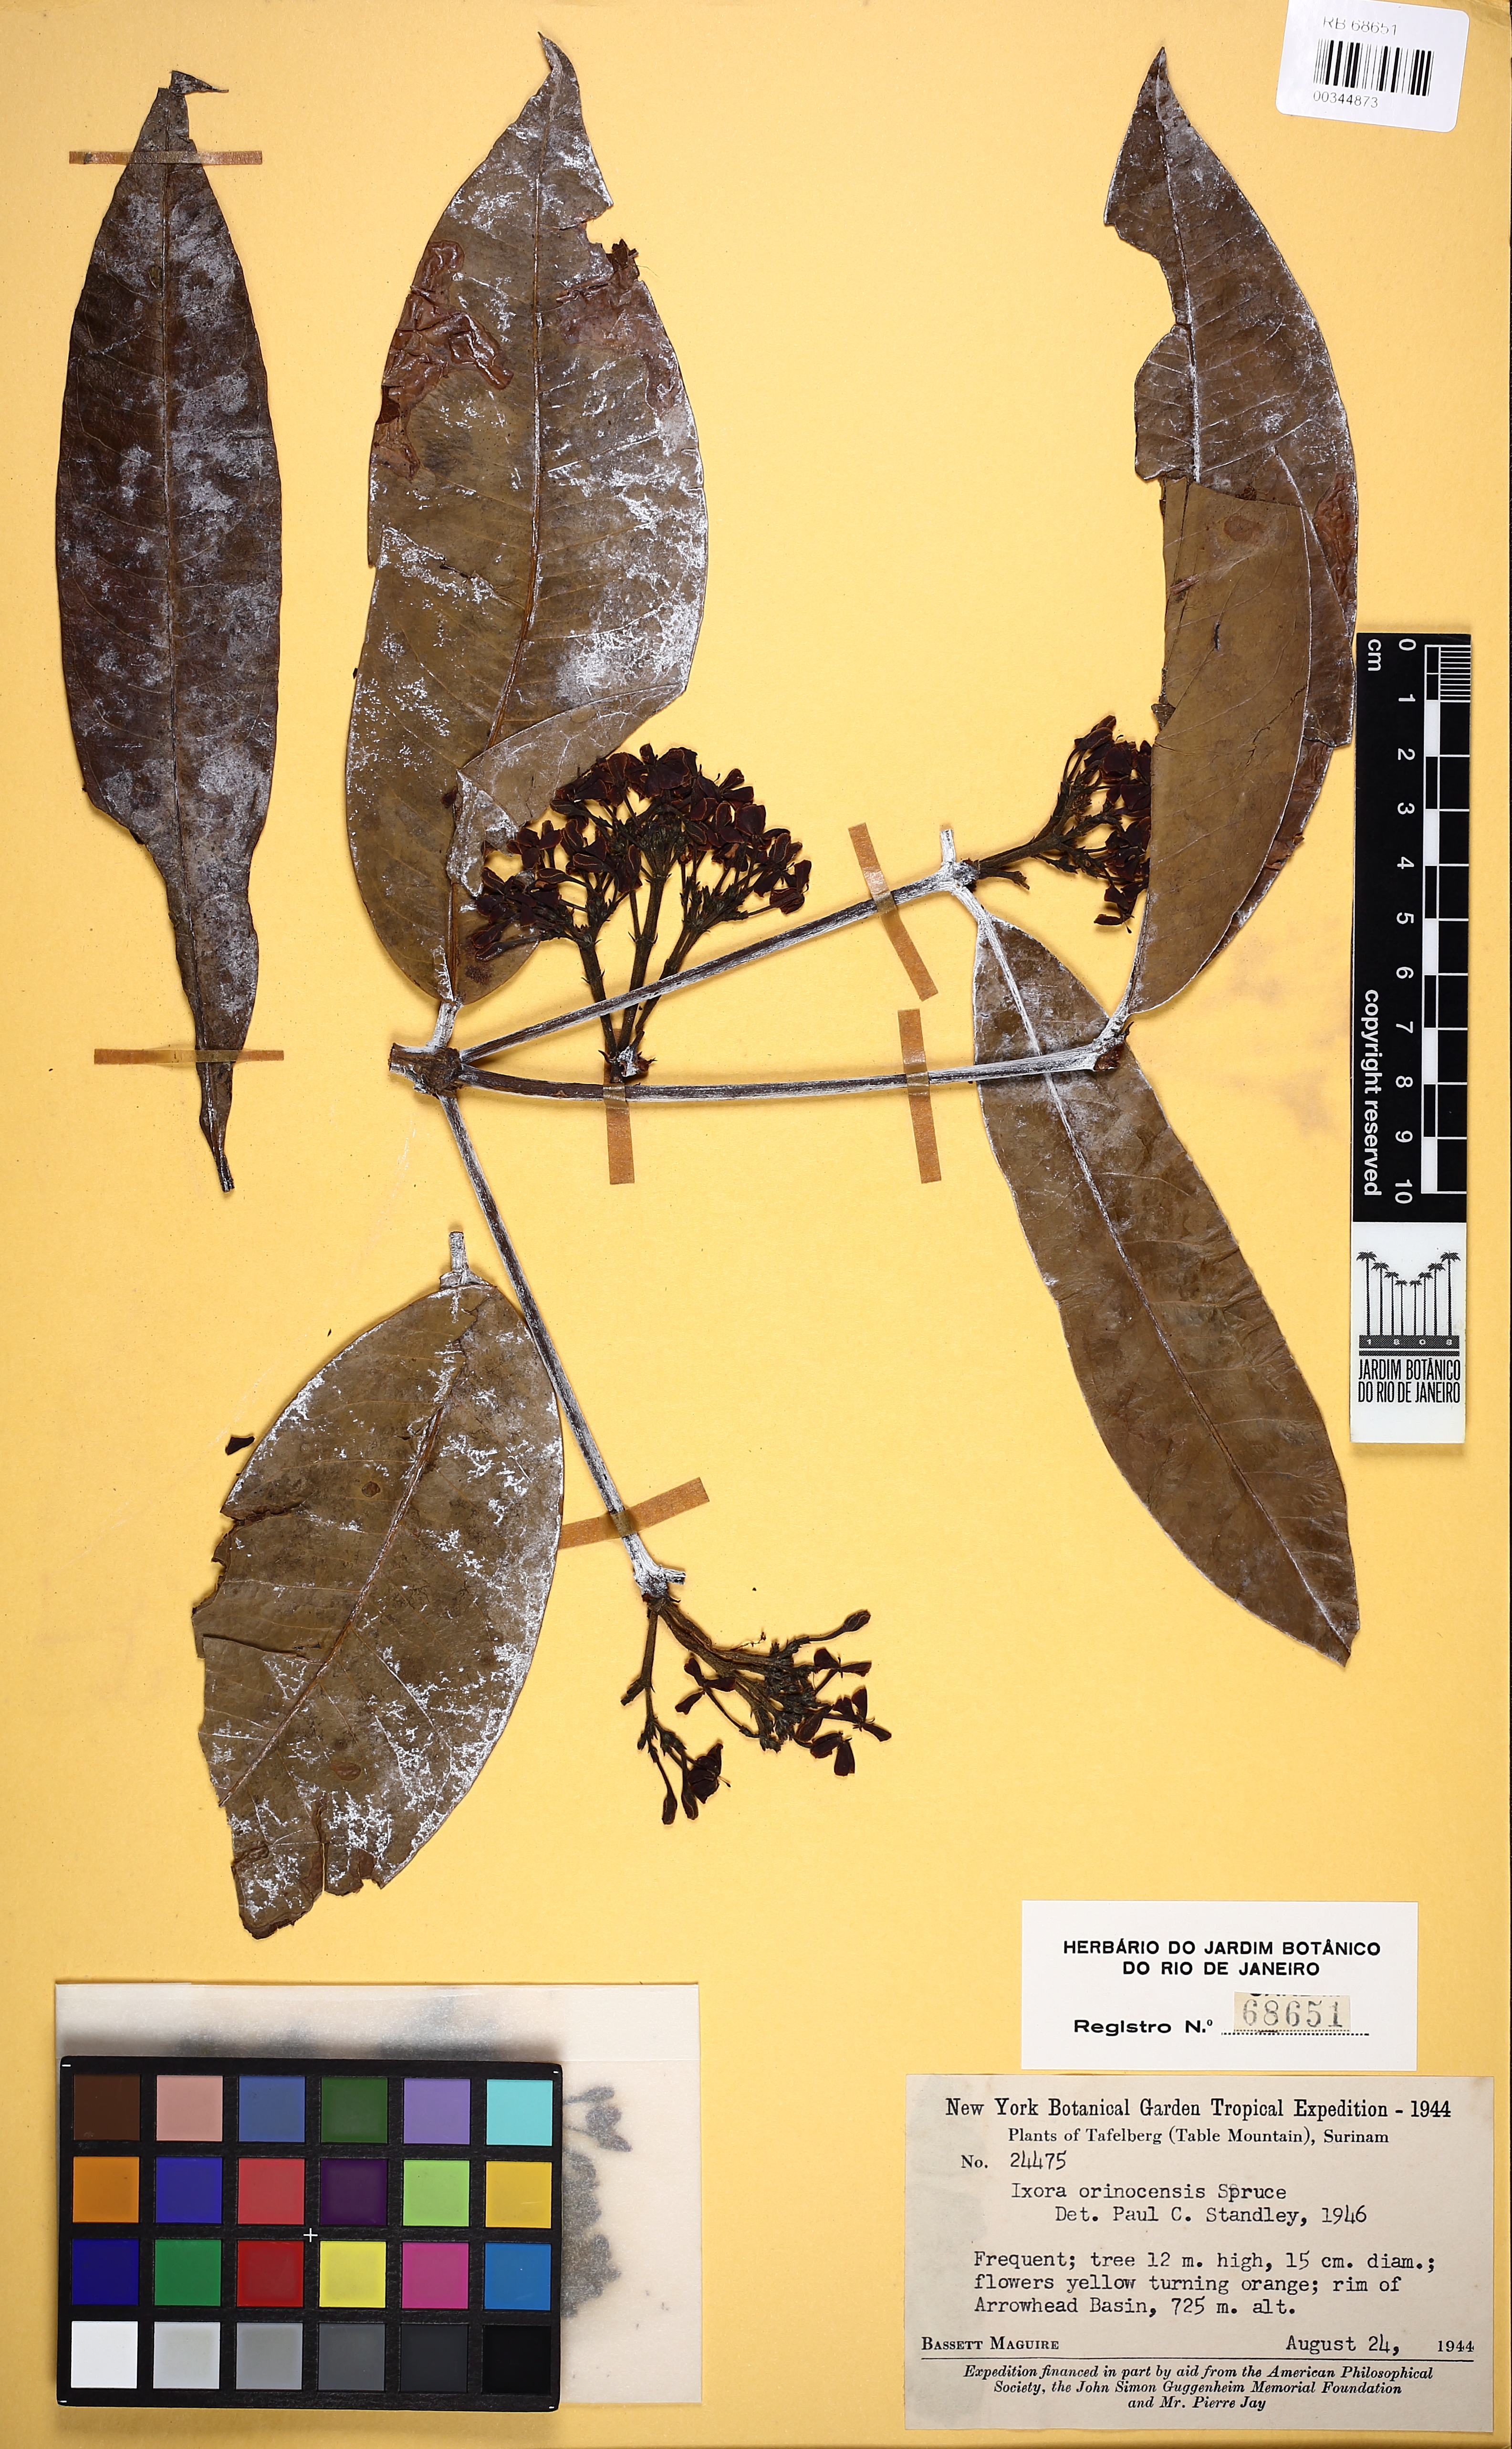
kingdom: Plantae
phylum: Tracheophyta
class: Magnoliopsida
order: Gentianales
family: Rubiaceae
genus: Ixora
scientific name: Ixora orinocensis
